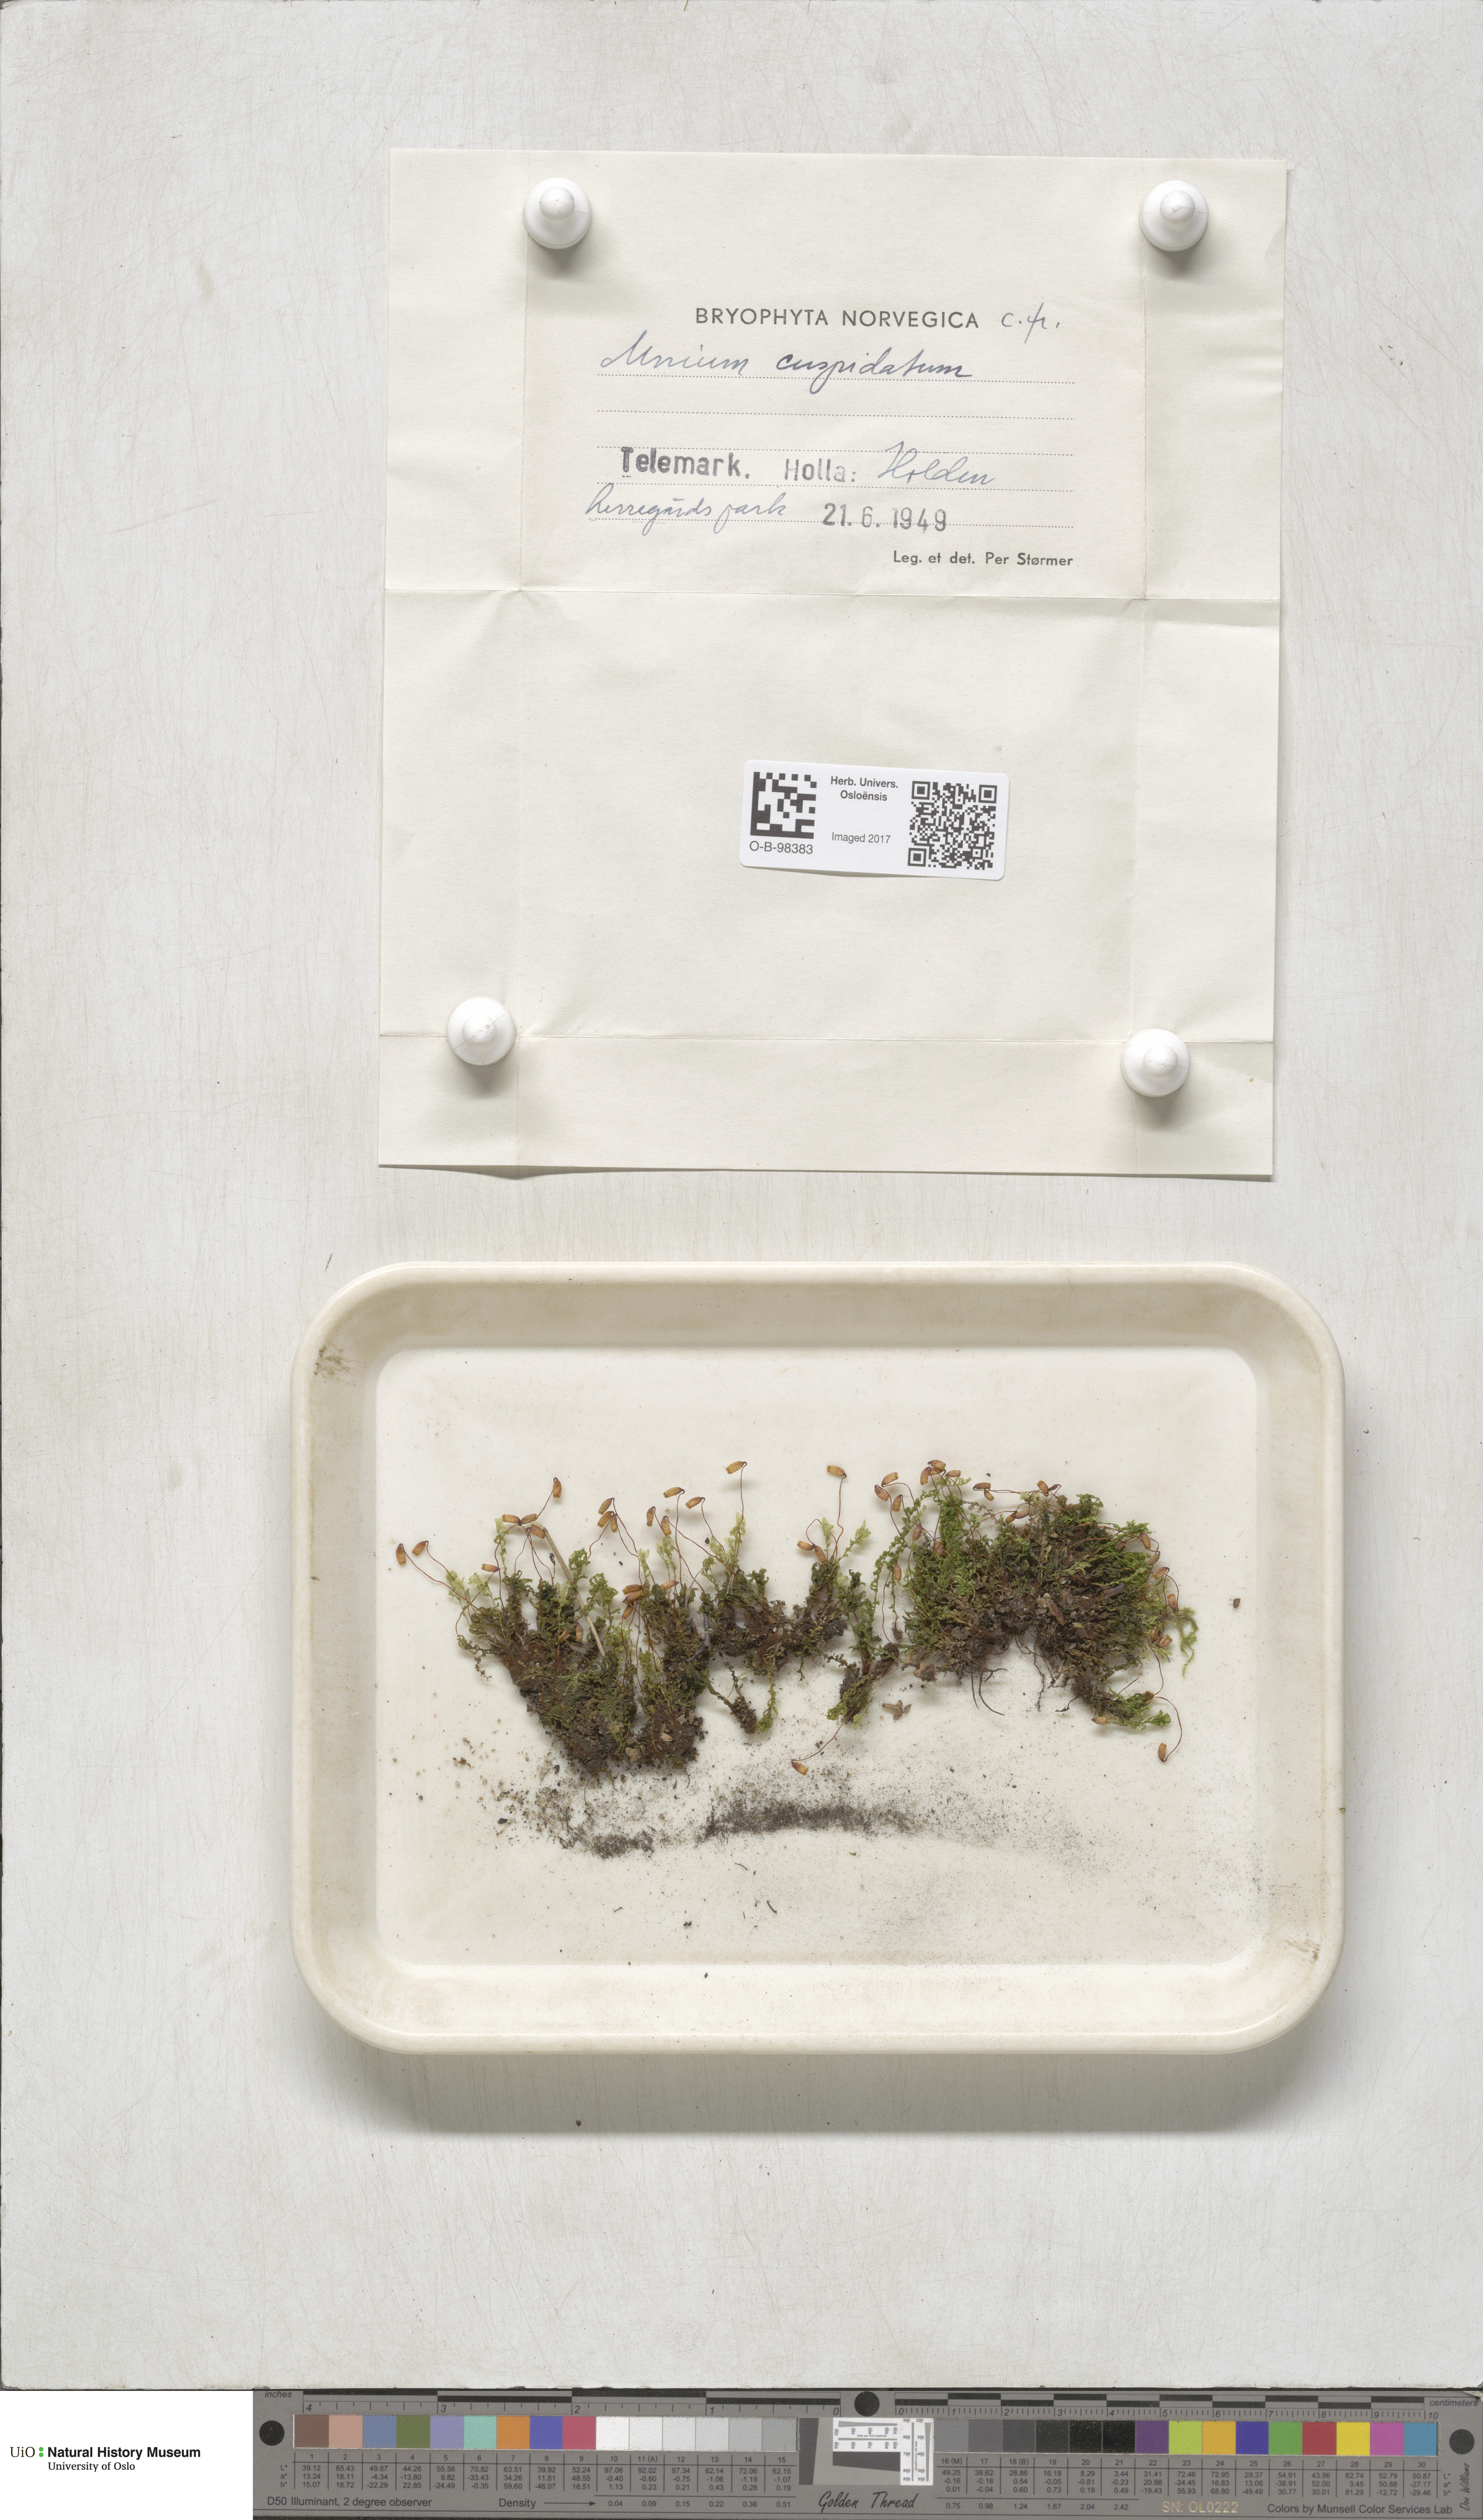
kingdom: Plantae
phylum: Bryophyta
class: Bryopsida
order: Bryales
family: Mniaceae
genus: Plagiomnium
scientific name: Plagiomnium cuspidatum
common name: Woodsy leafy moss
